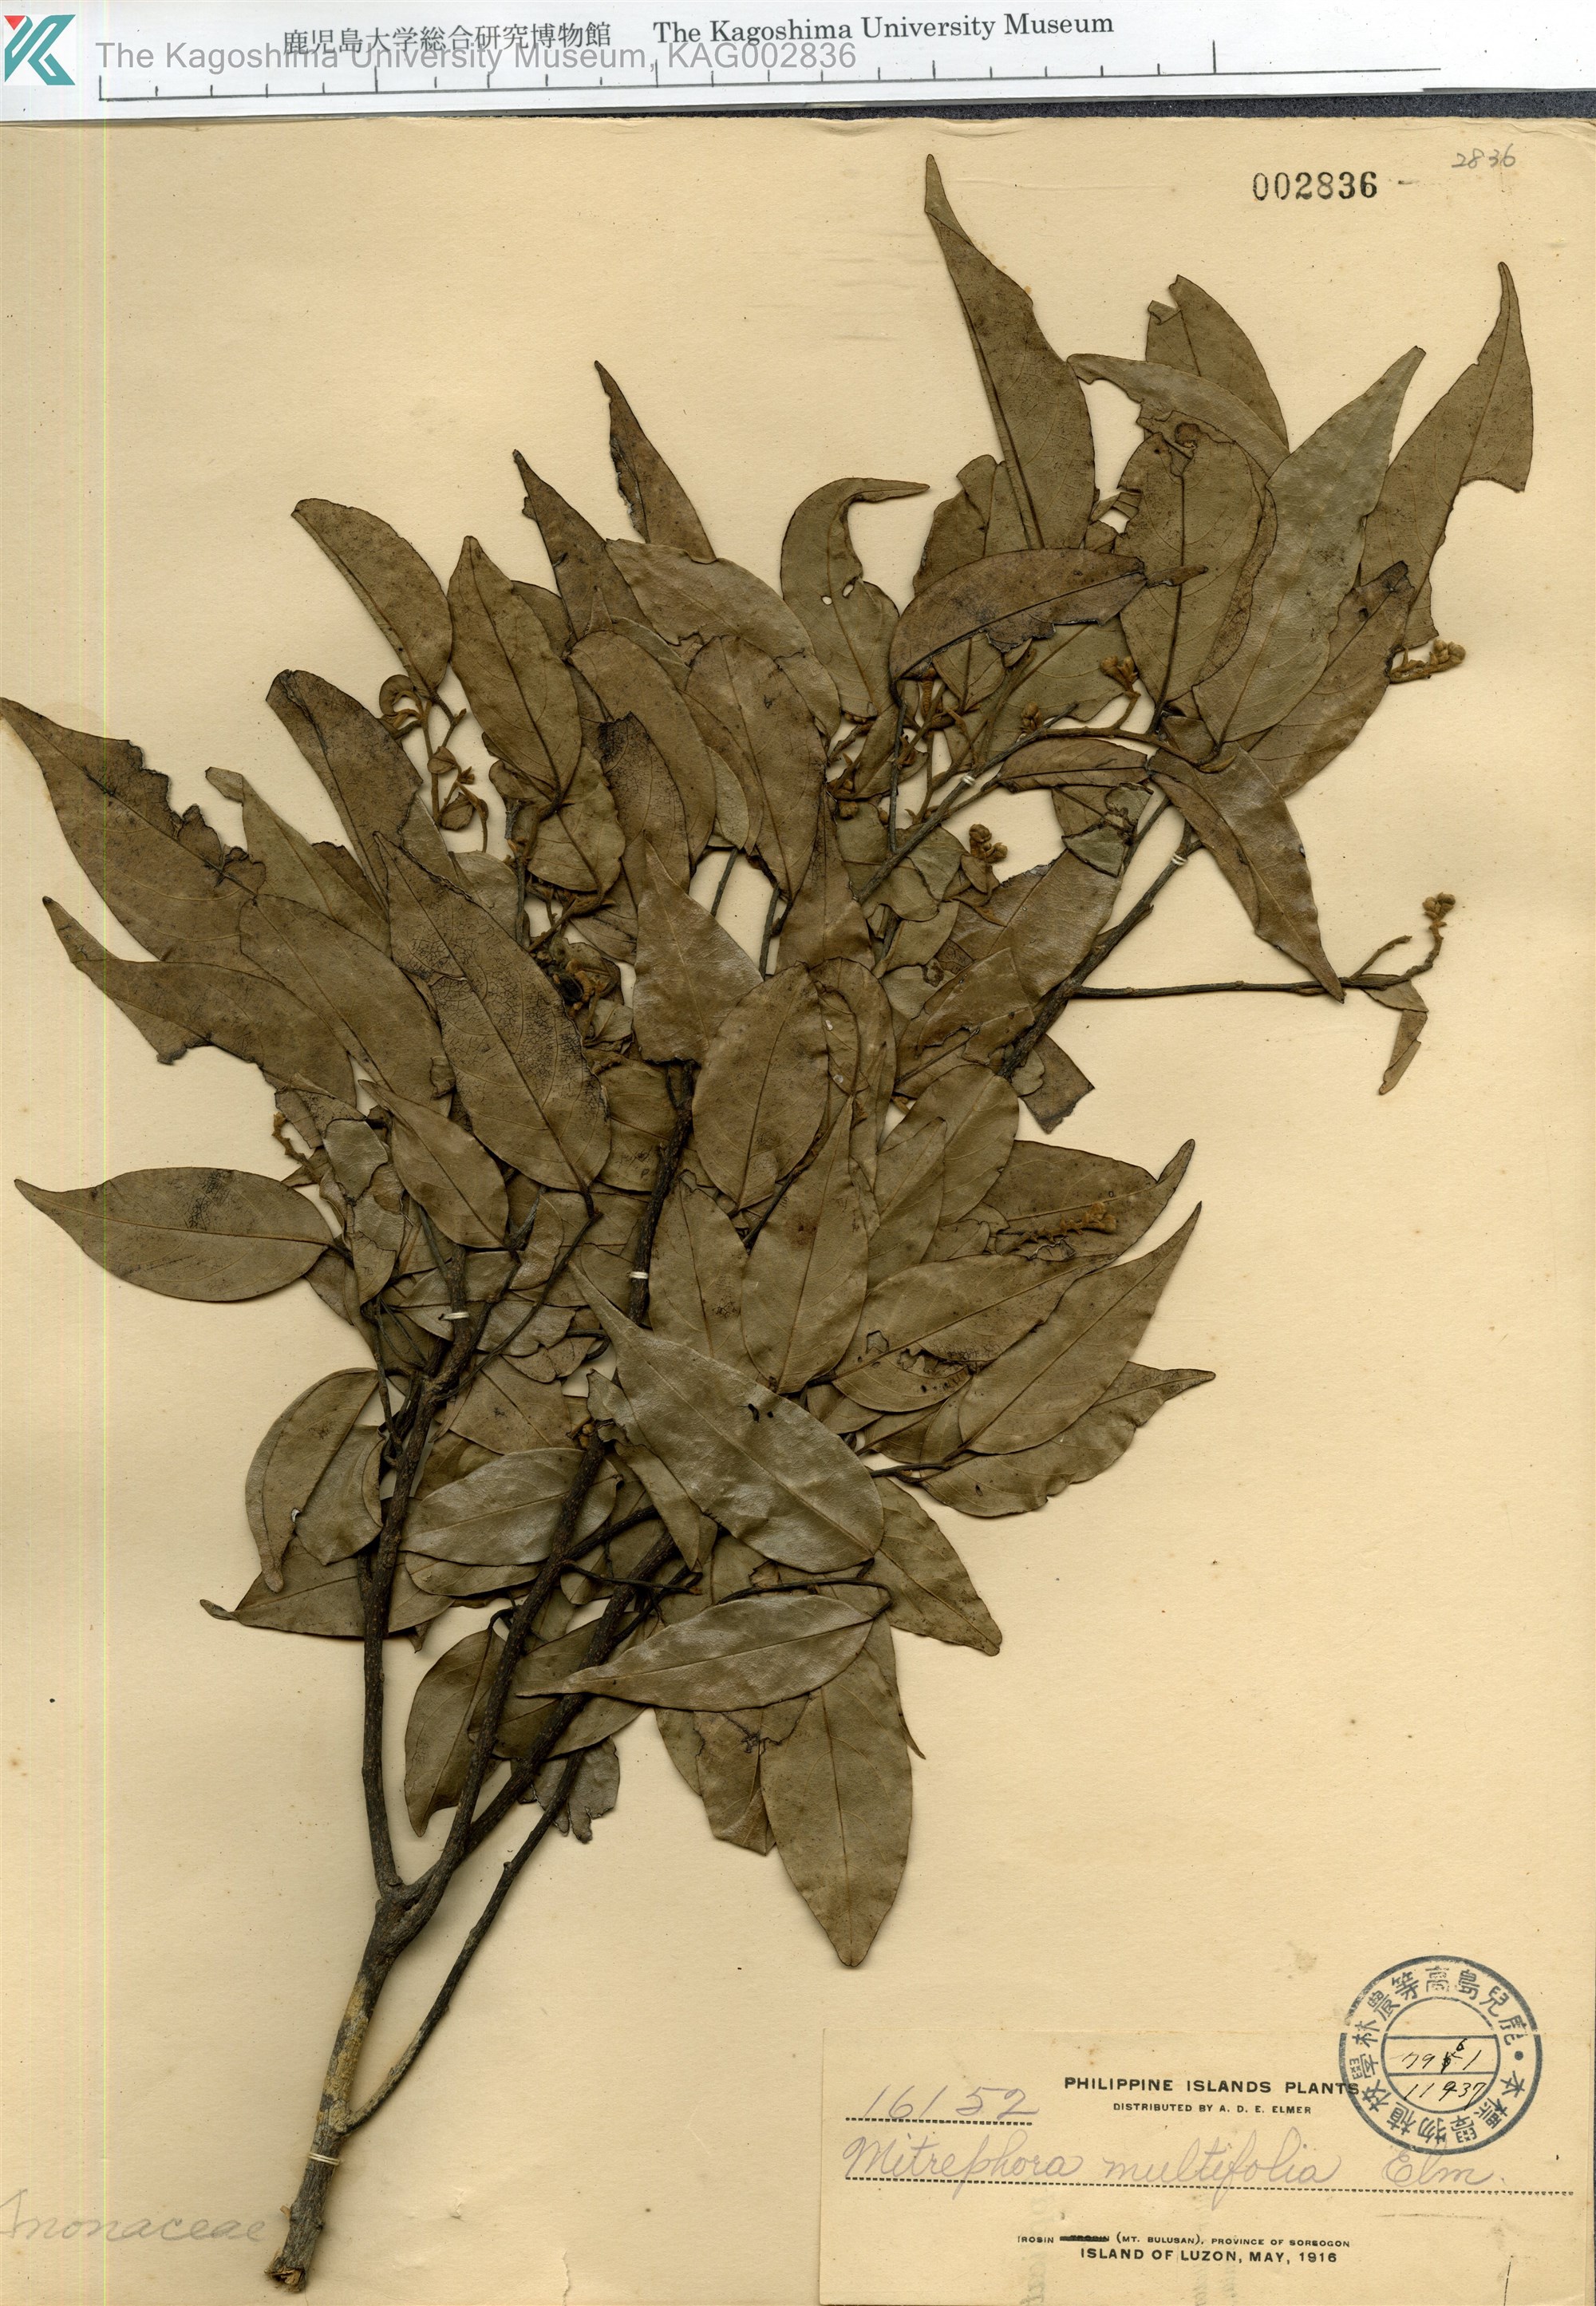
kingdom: Plantae
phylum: Tracheophyta
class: Magnoliopsida
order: Magnoliales
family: Annonaceae
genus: Mitrephora
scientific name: Mitrephora multifolia
